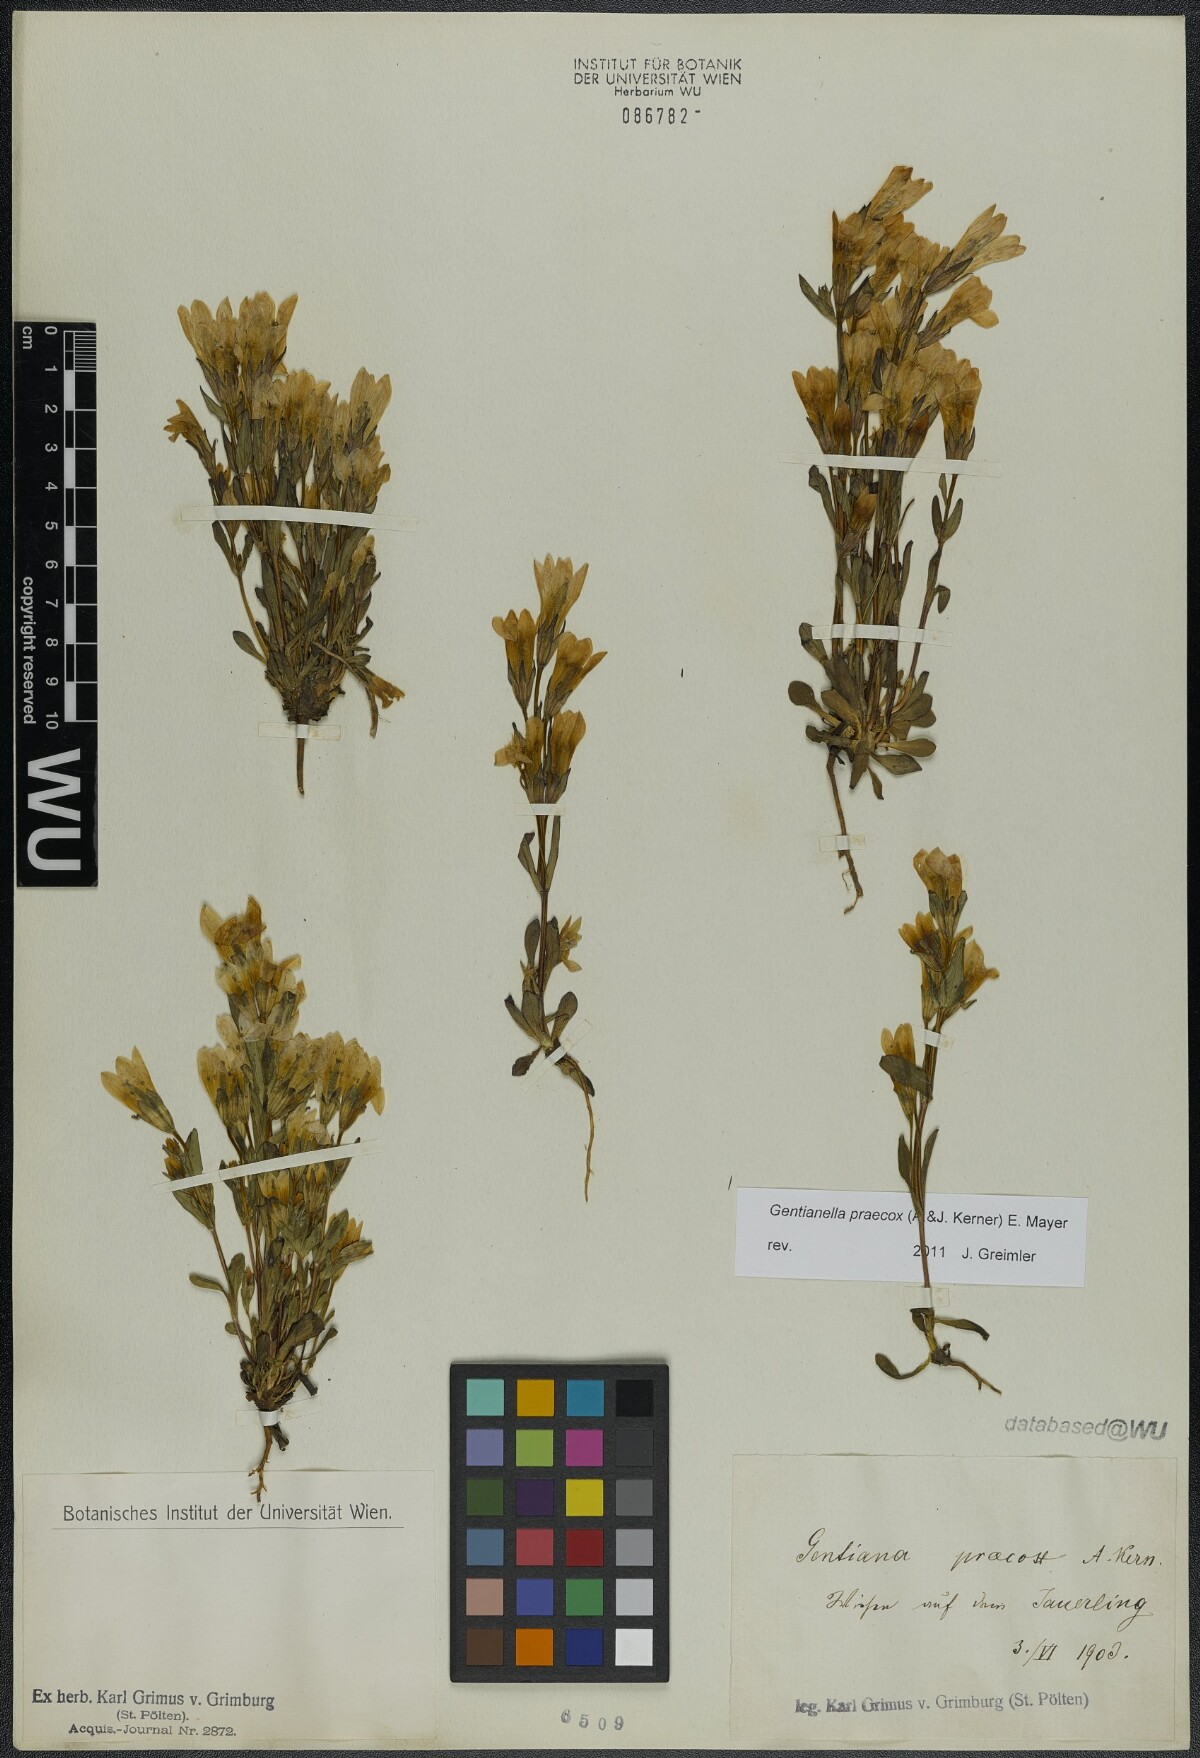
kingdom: Plantae
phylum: Tracheophyta
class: Magnoliopsida
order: Gentianales
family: Gentianaceae
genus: Gentianella
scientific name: Gentianella praecox
